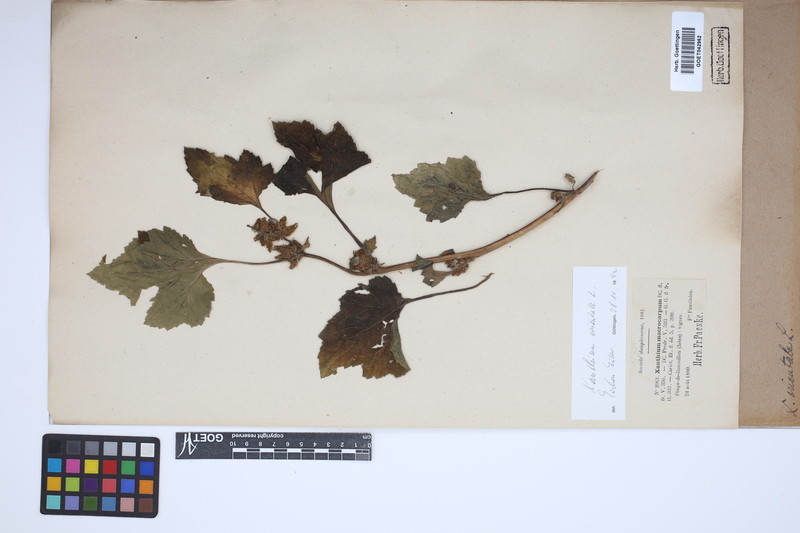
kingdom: Plantae
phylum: Tracheophyta
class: Magnoliopsida
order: Asterales
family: Asteraceae
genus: Xanthium
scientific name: Xanthium orientale
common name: Californian burr
